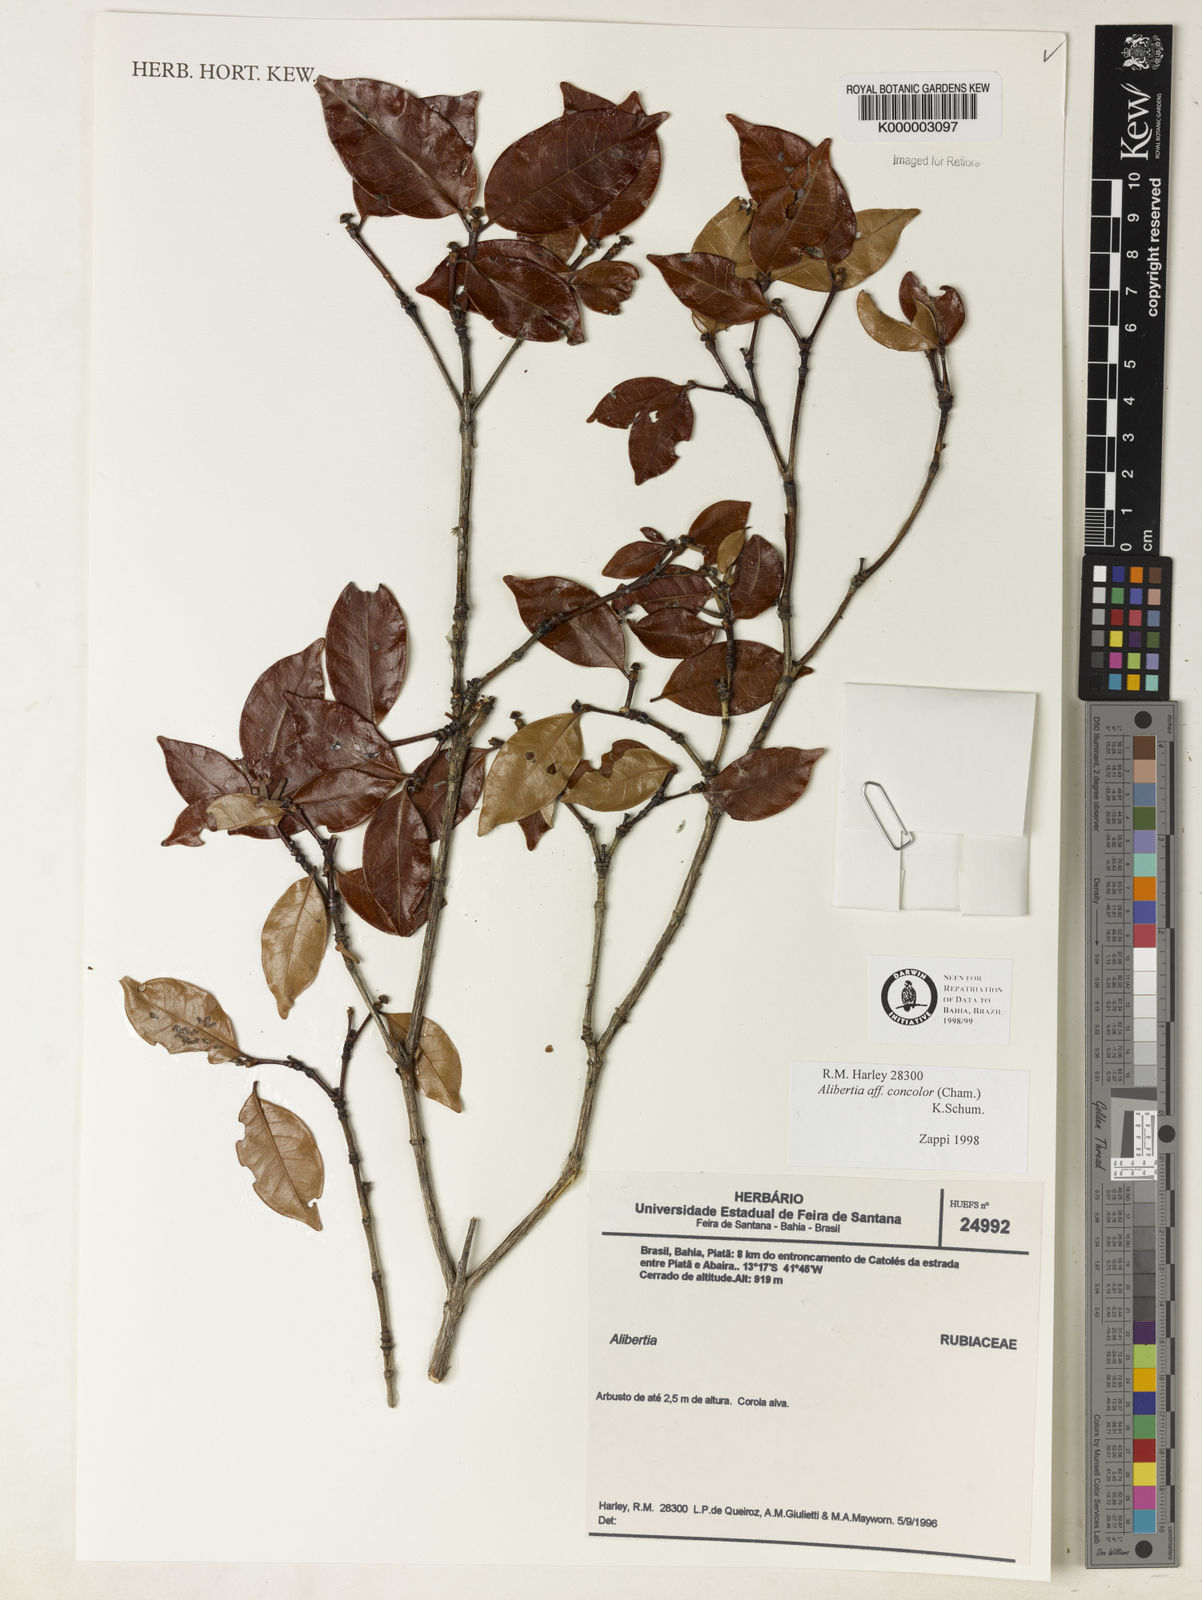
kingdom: Plantae
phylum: Tracheophyta
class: Magnoliopsida
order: Gentianales
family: Rubiaceae
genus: Cordiera
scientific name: Cordiera rigida
